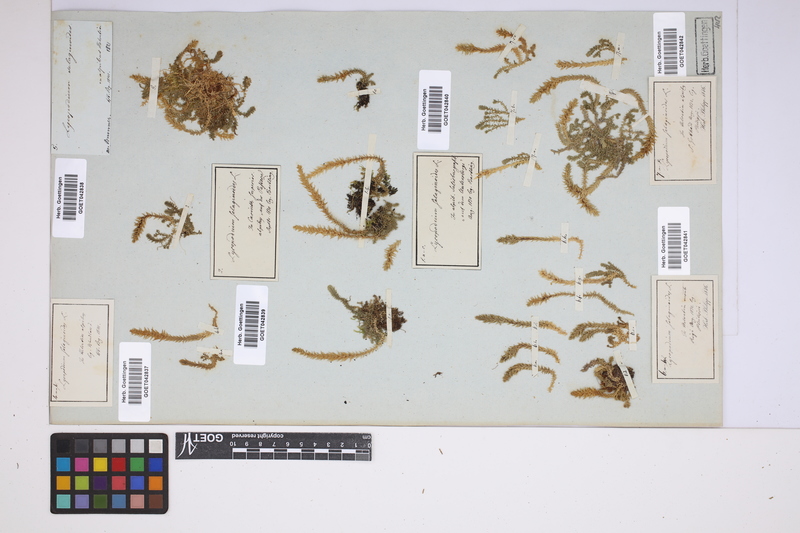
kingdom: Plantae
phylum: Tracheophyta
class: Lycopodiopsida
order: Selaginellales
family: Selaginellaceae
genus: Selaginella
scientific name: Selaginella selaginoides
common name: Prickly mountain-moss
